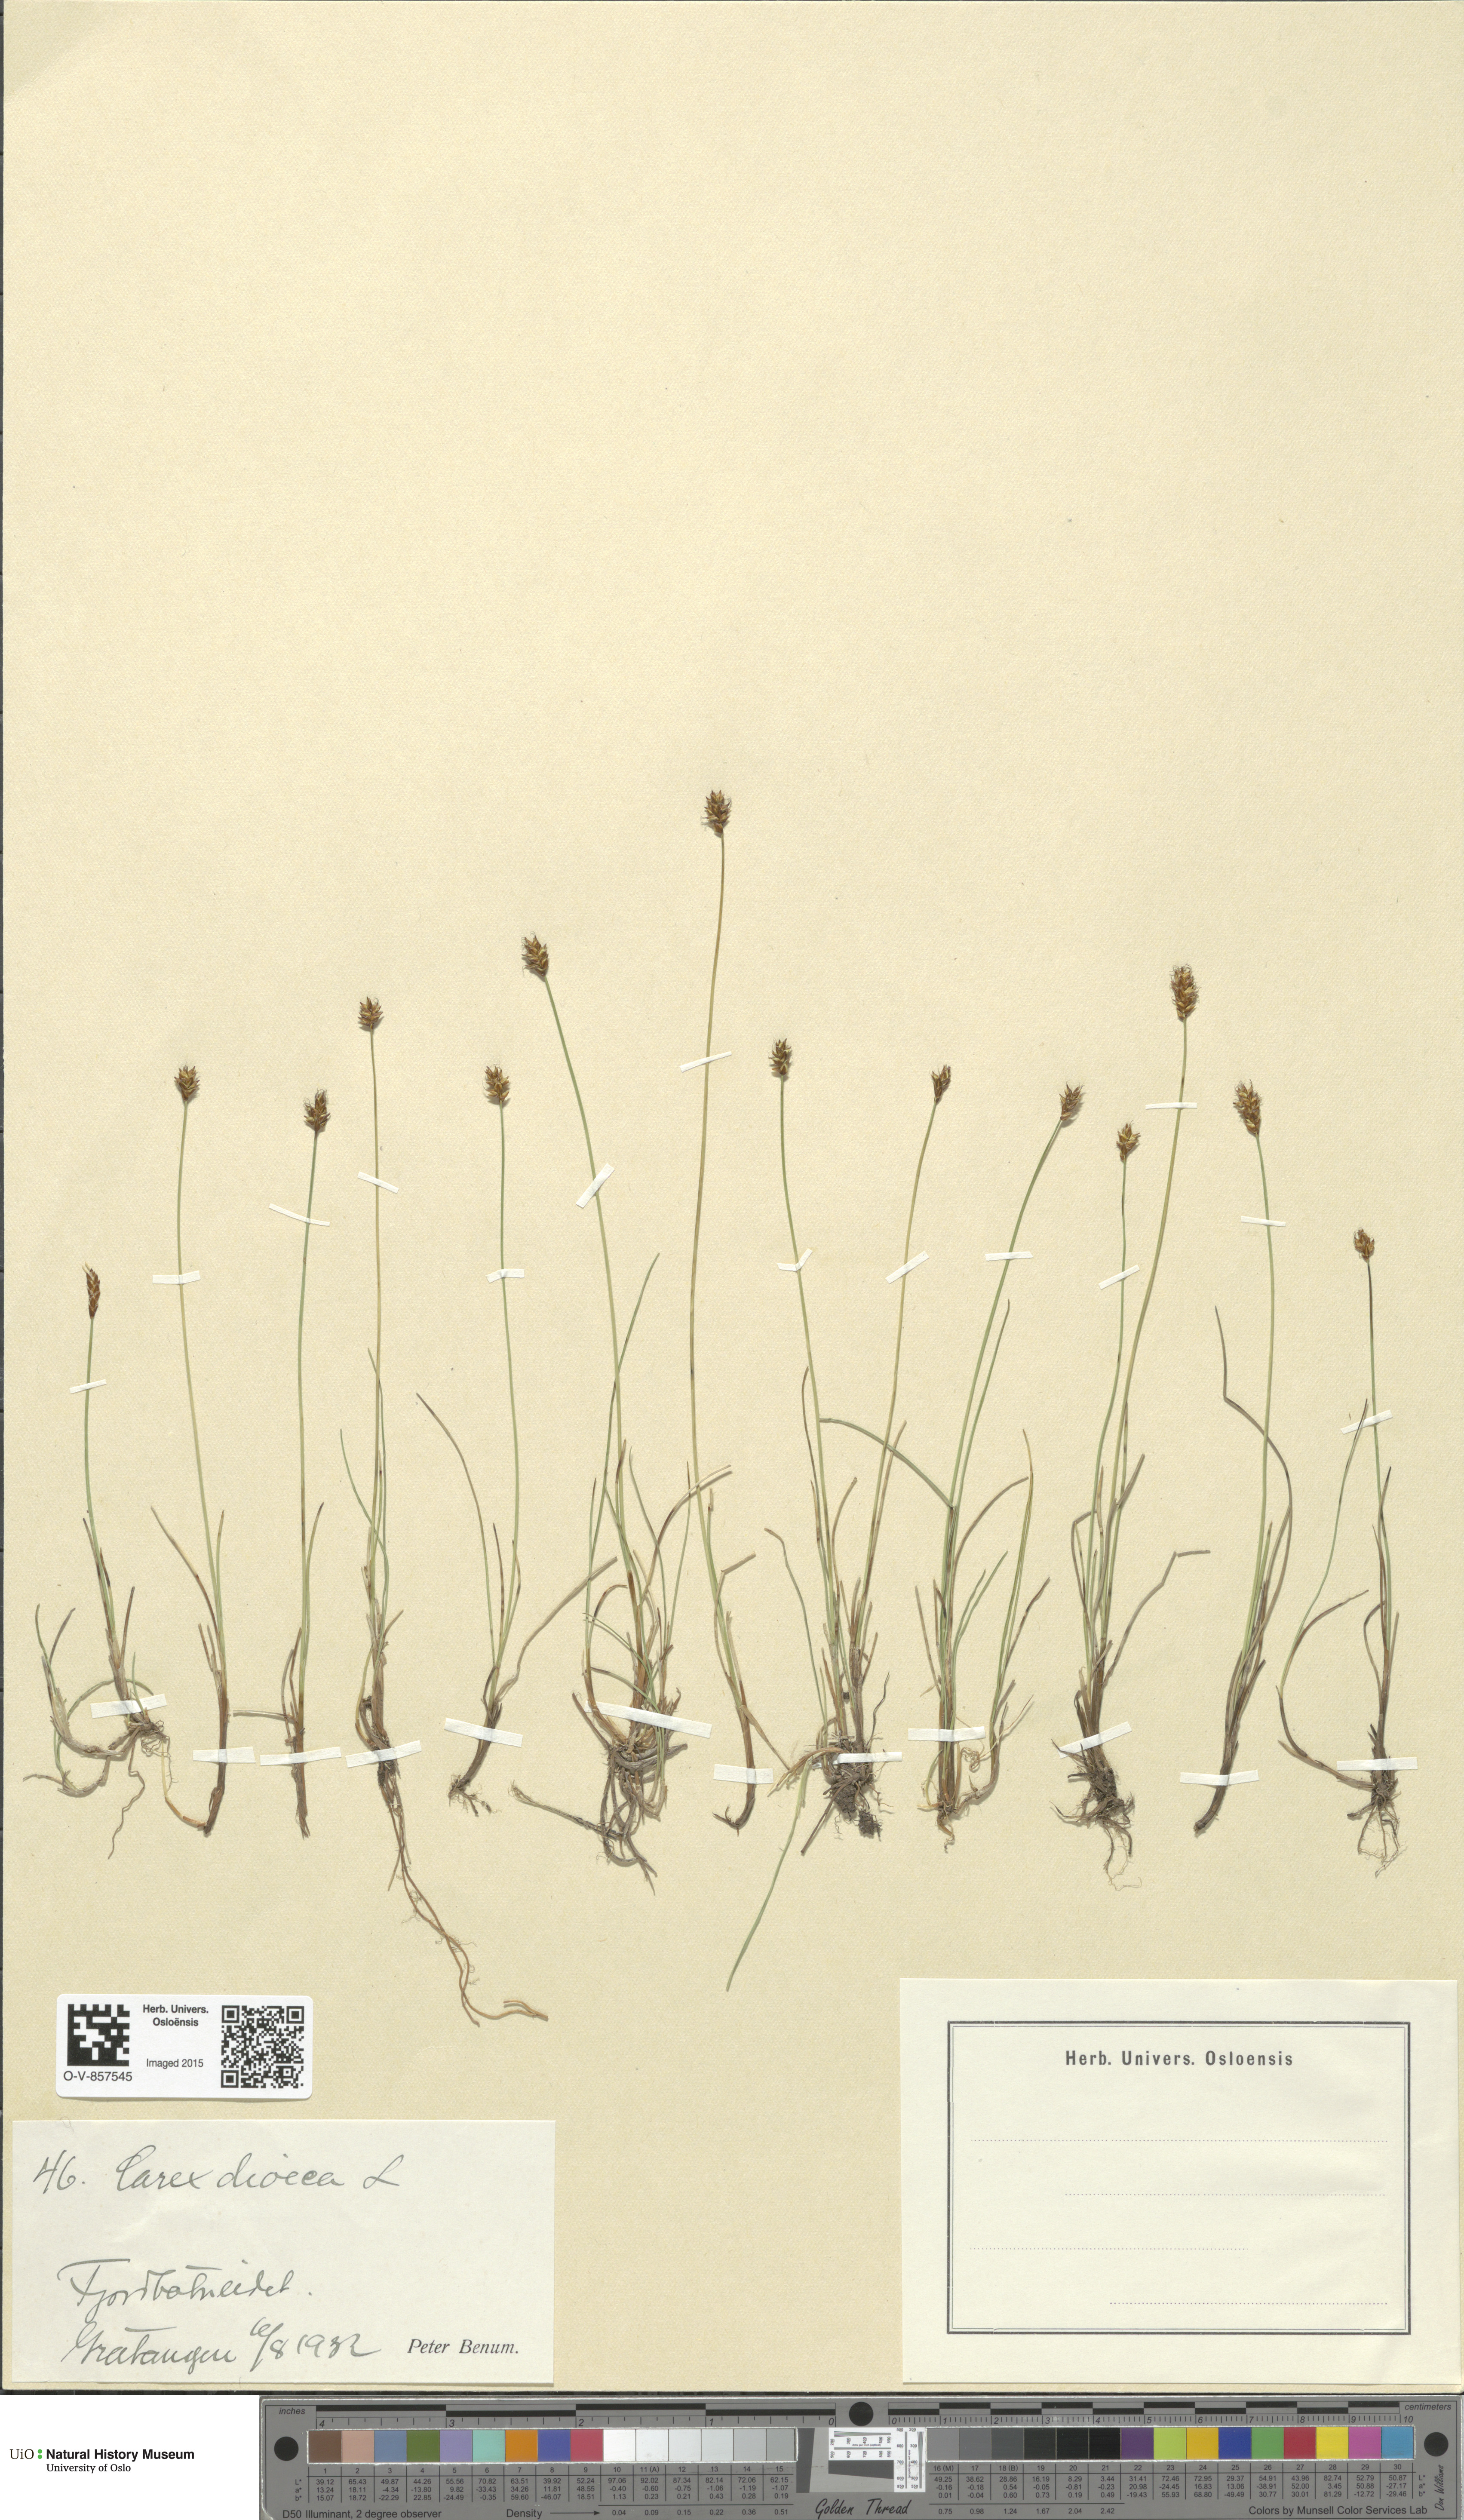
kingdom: Plantae
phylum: Tracheophyta
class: Liliopsida
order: Poales
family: Cyperaceae
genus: Carex
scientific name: Carex dioica
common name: Dioecious sedge
